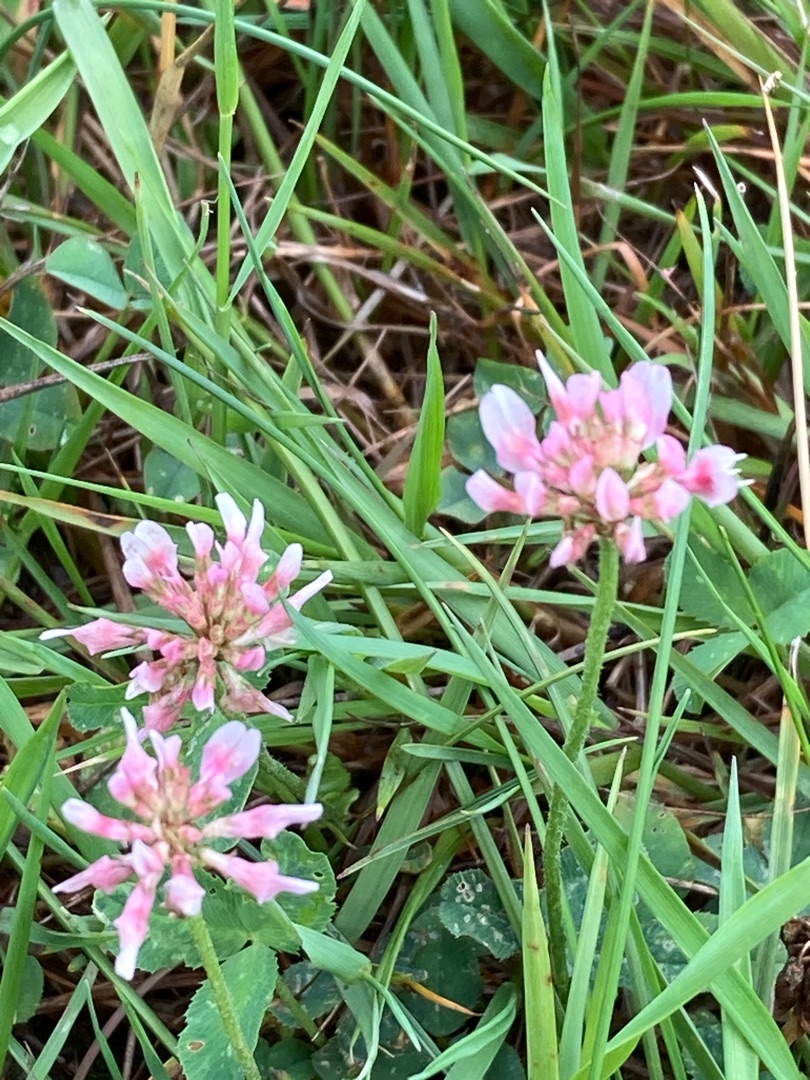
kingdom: Plantae
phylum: Tracheophyta
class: Magnoliopsida
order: Fabales
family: Fabaceae
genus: Trifolium
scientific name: Trifolium repens
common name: Hvid-kløver
